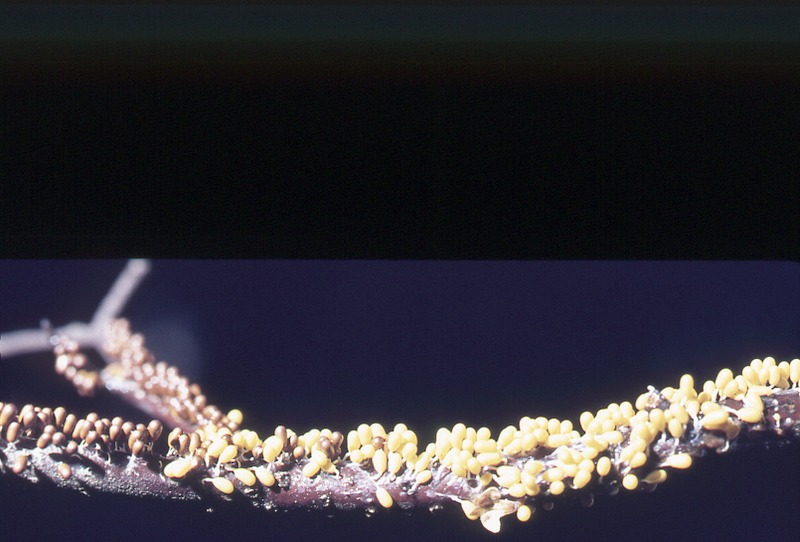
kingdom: Protozoa
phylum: Mycetozoa
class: Myxomycetes
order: Physarales
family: Physaraceae
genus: Leocarpus
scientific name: Leocarpus fragilis
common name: Insect-egg slime
